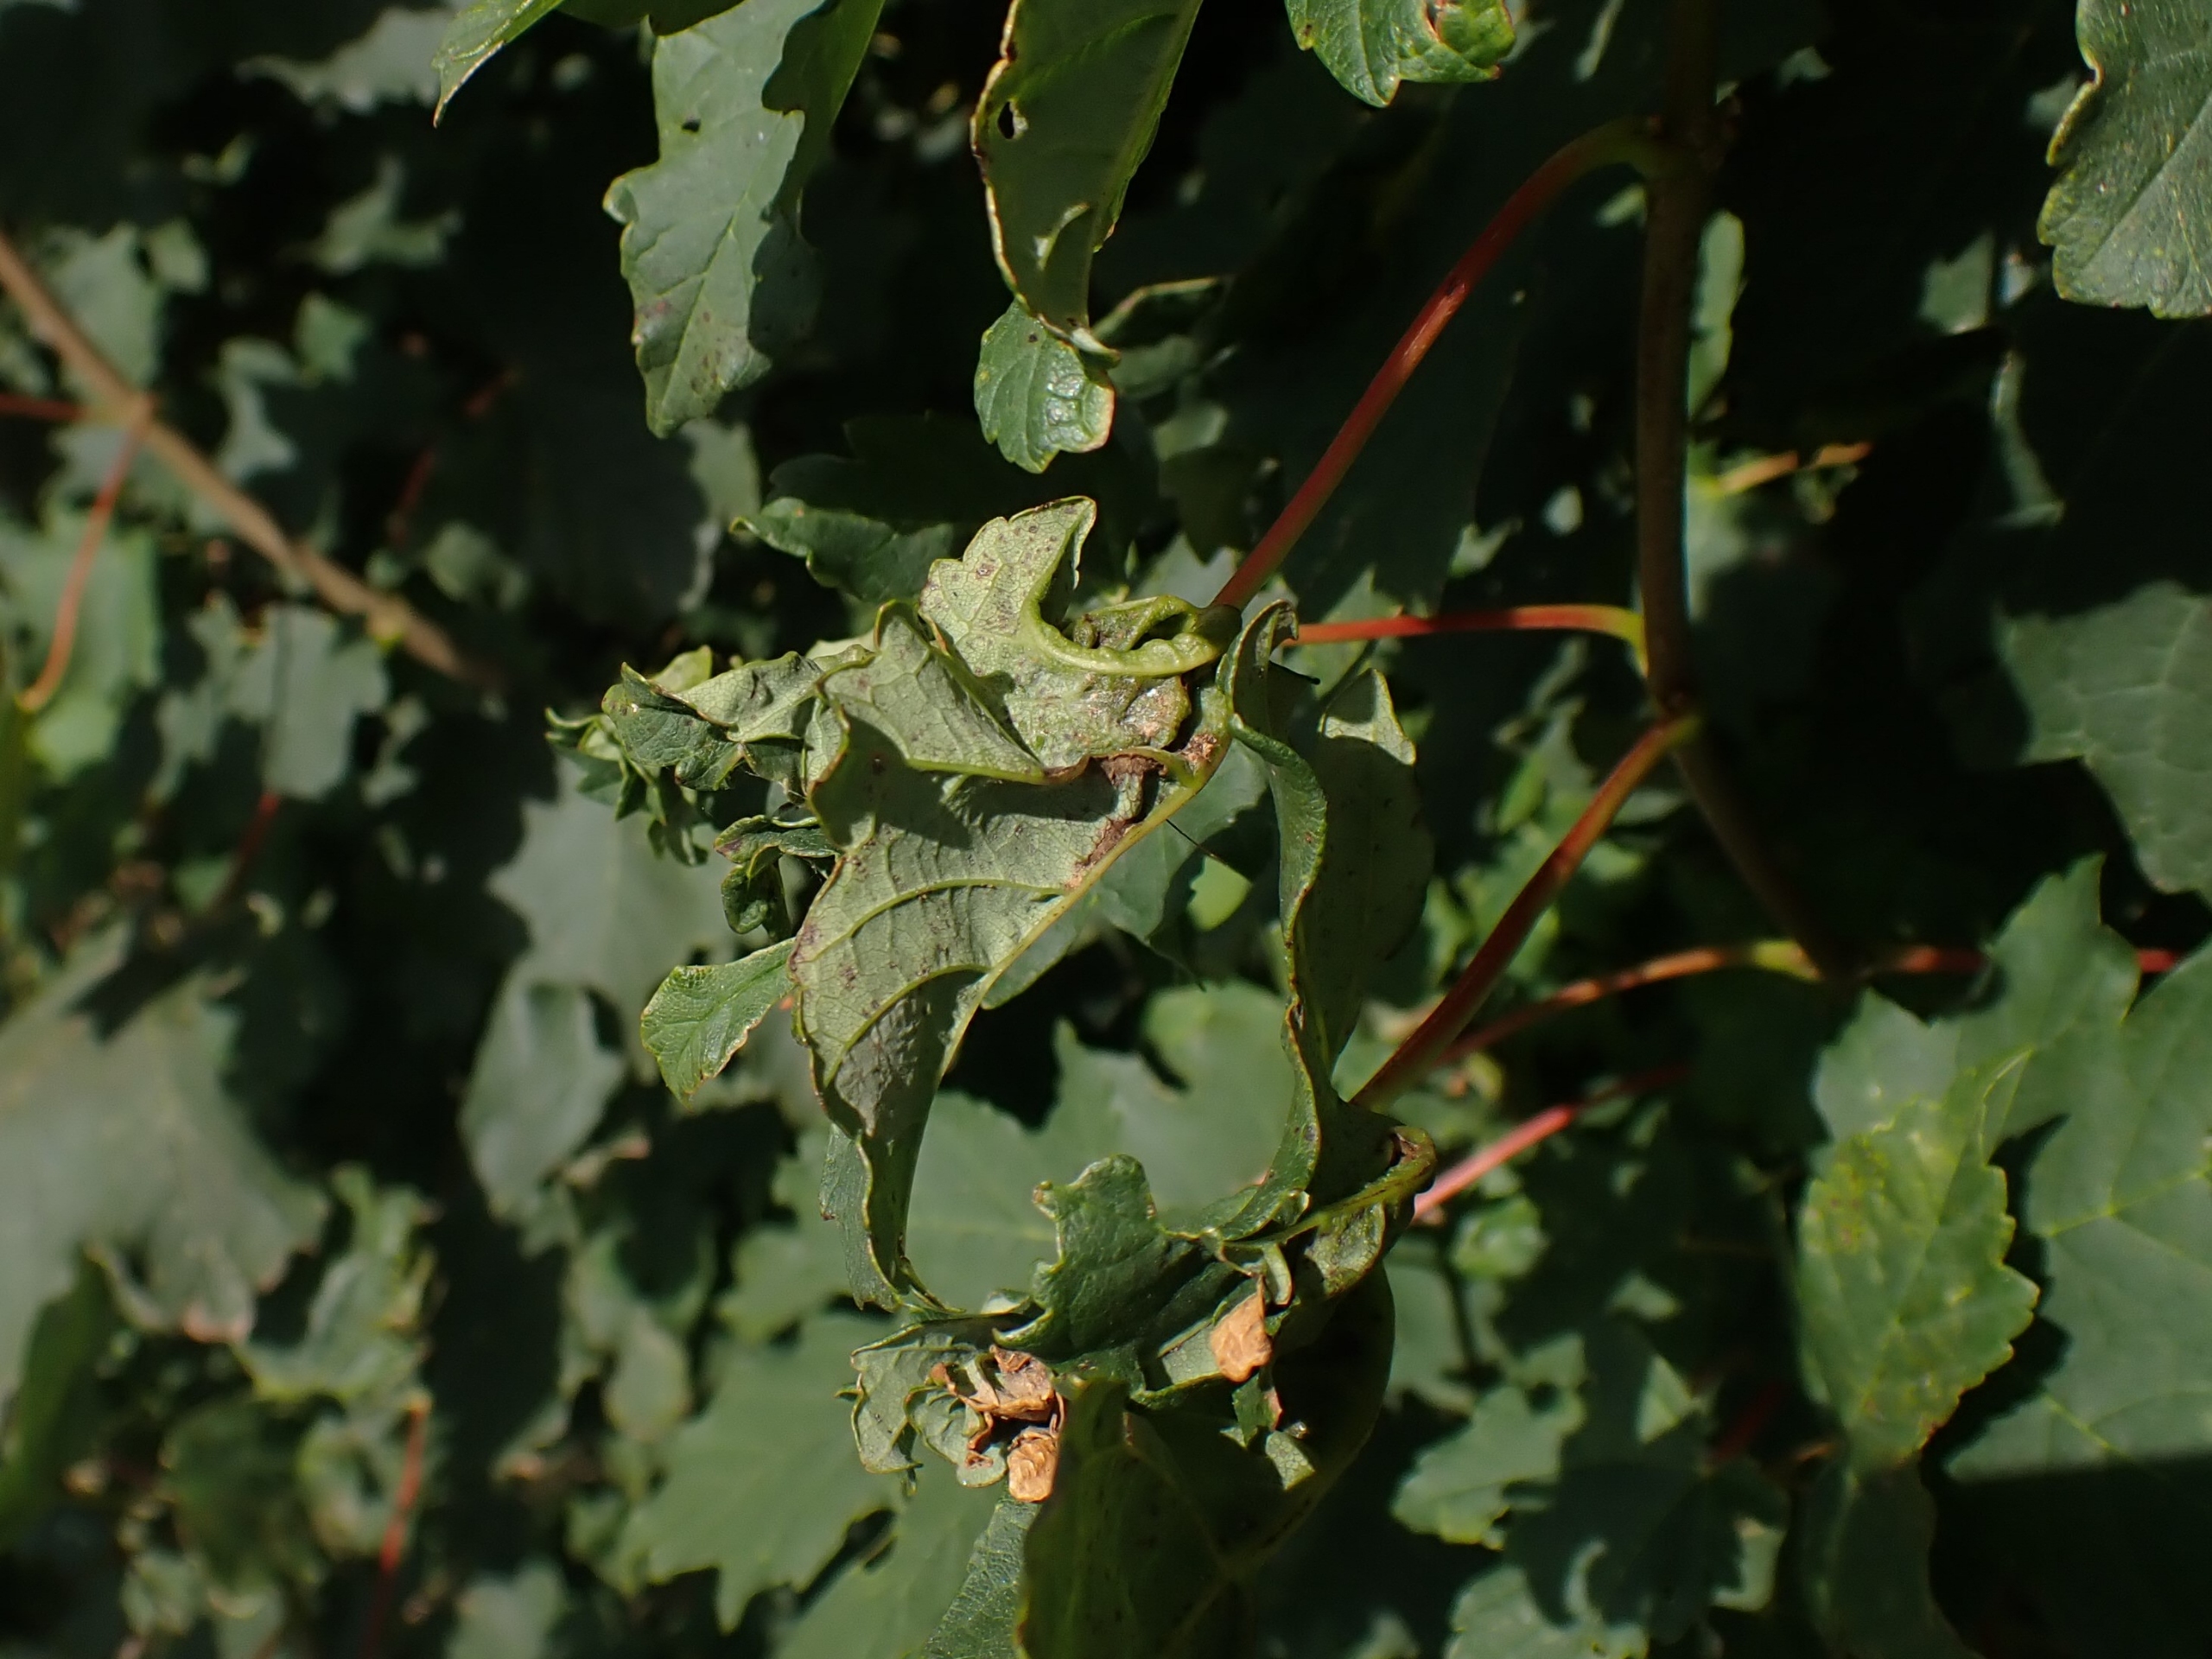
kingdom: Animalia
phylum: Arthropoda
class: Insecta
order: Diptera
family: Cecidomyiidae
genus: Dasineura
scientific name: Dasineura irregularis
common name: Ahornkrusegalmyg
